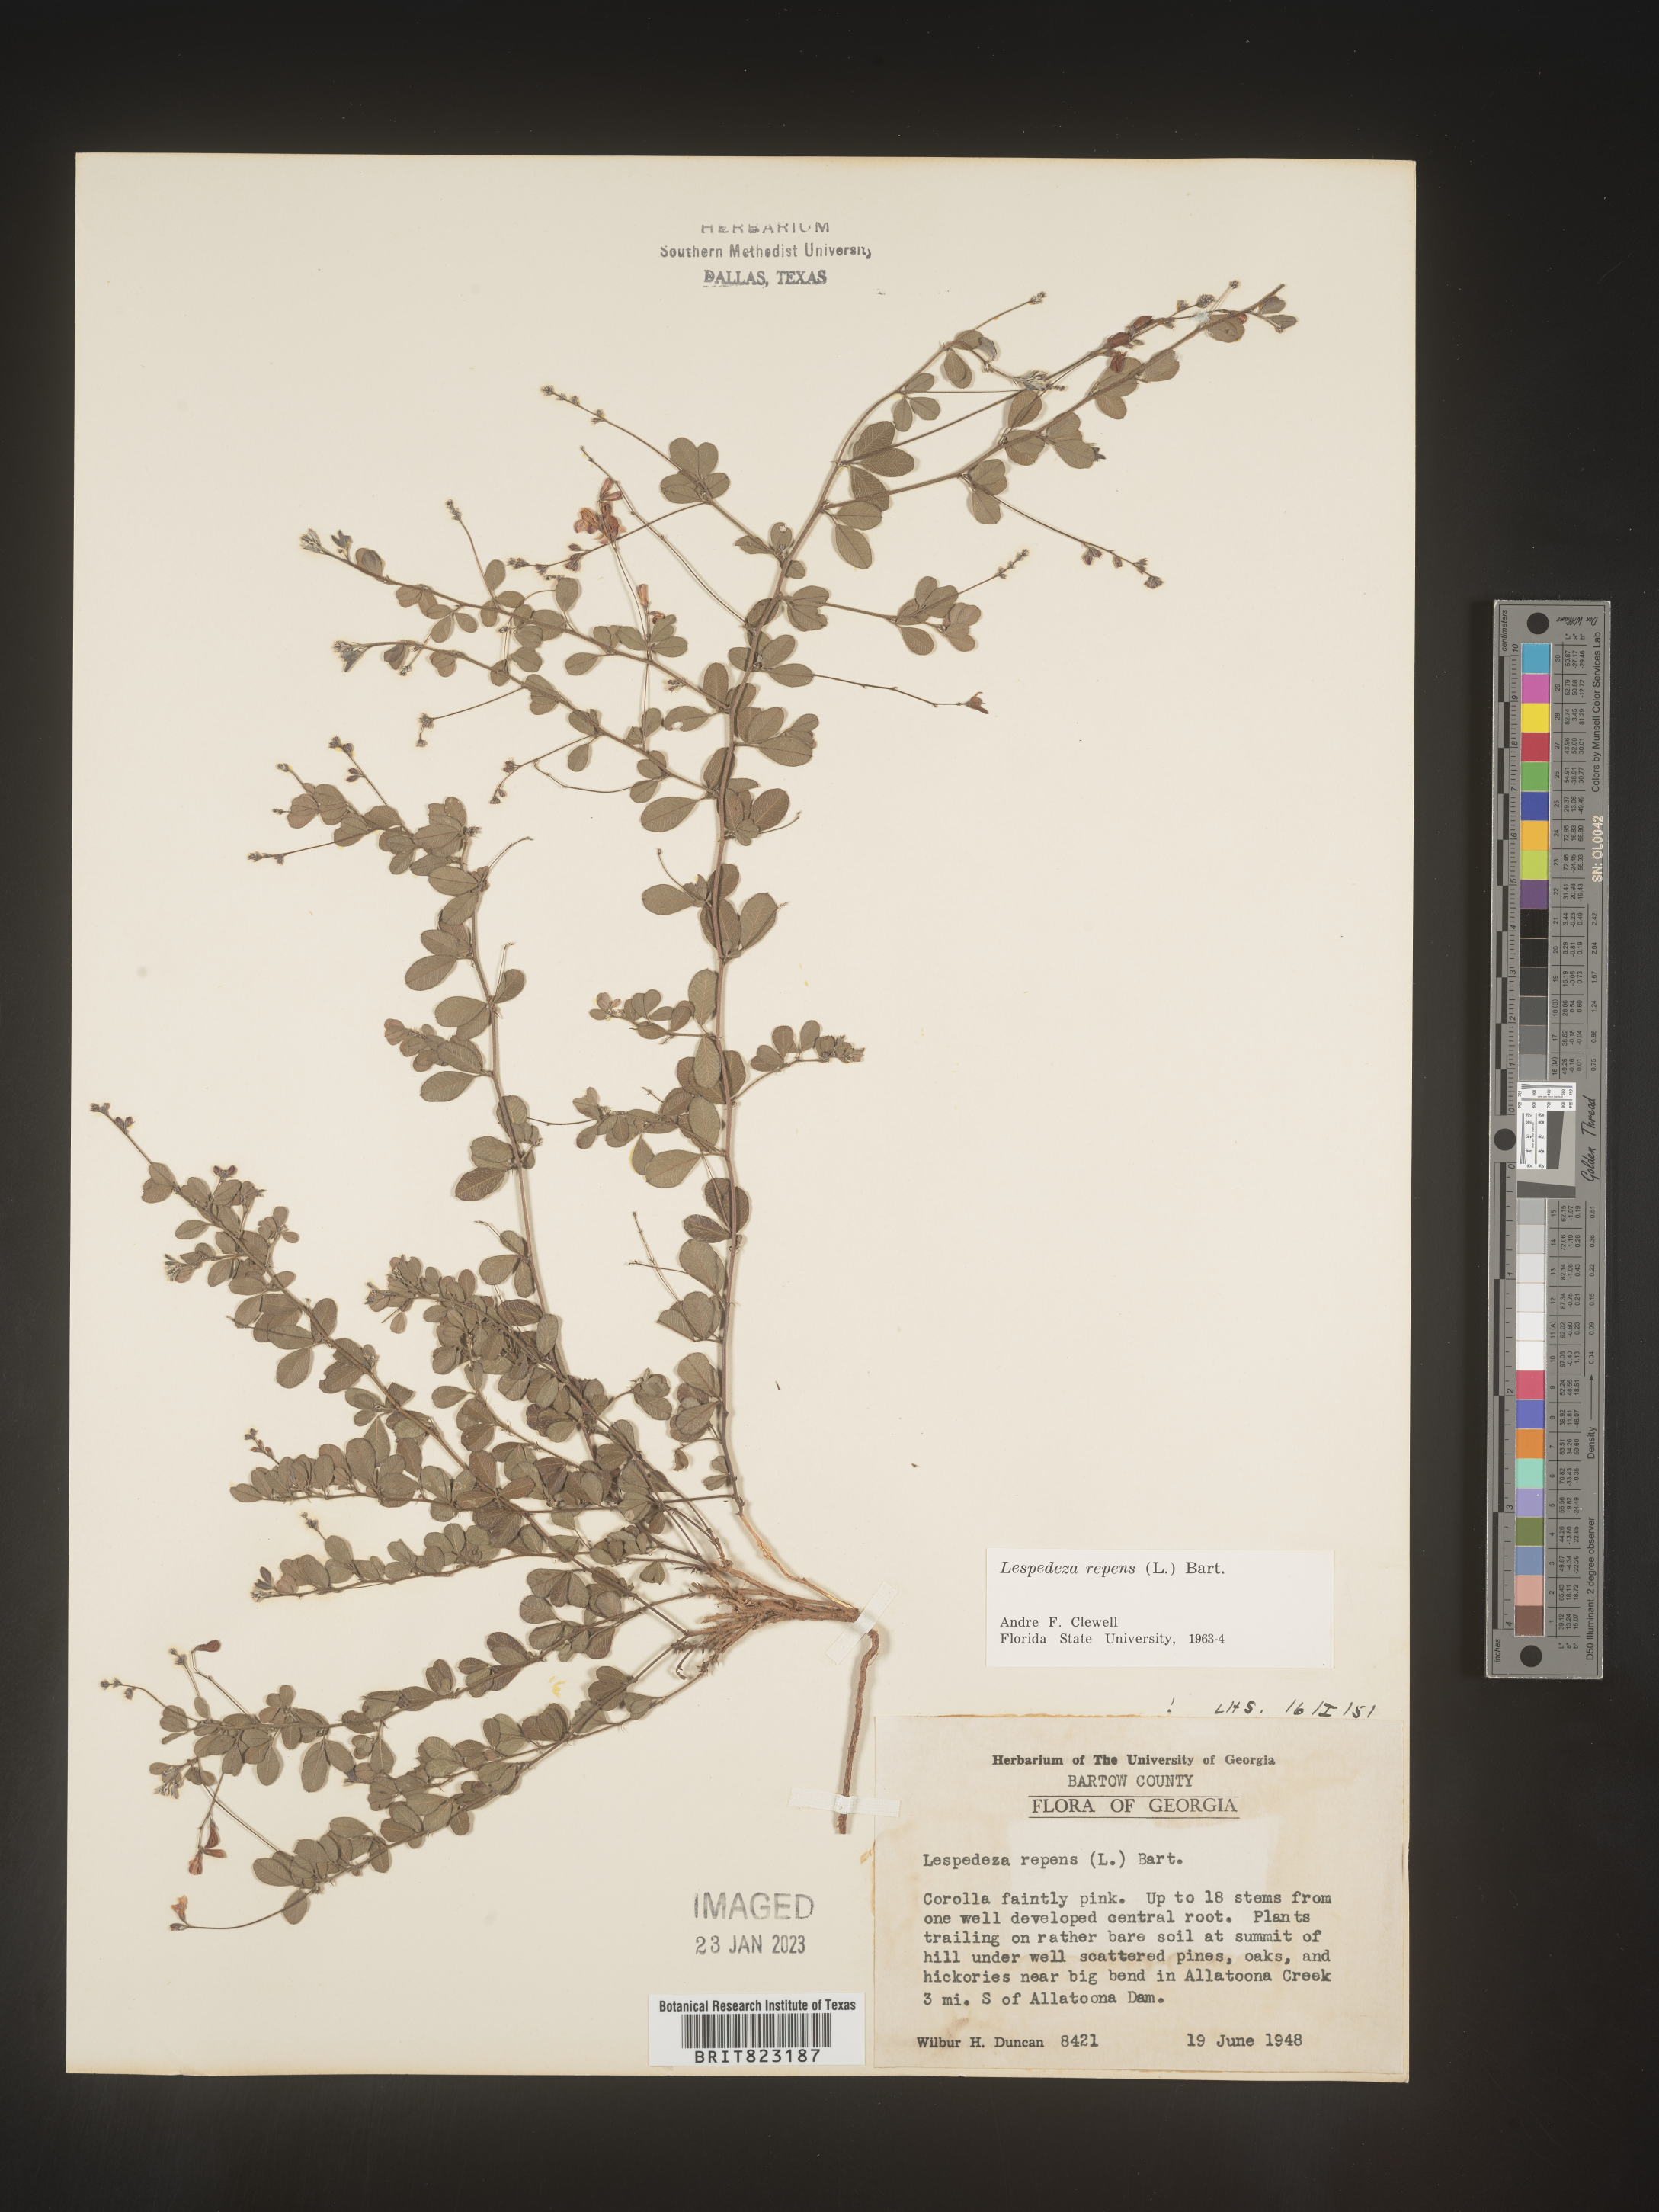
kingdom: Plantae
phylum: Tracheophyta
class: Magnoliopsida
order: Fabales
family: Fabaceae
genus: Lespedeza
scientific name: Lespedeza repens
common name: Creeping bush-clover
